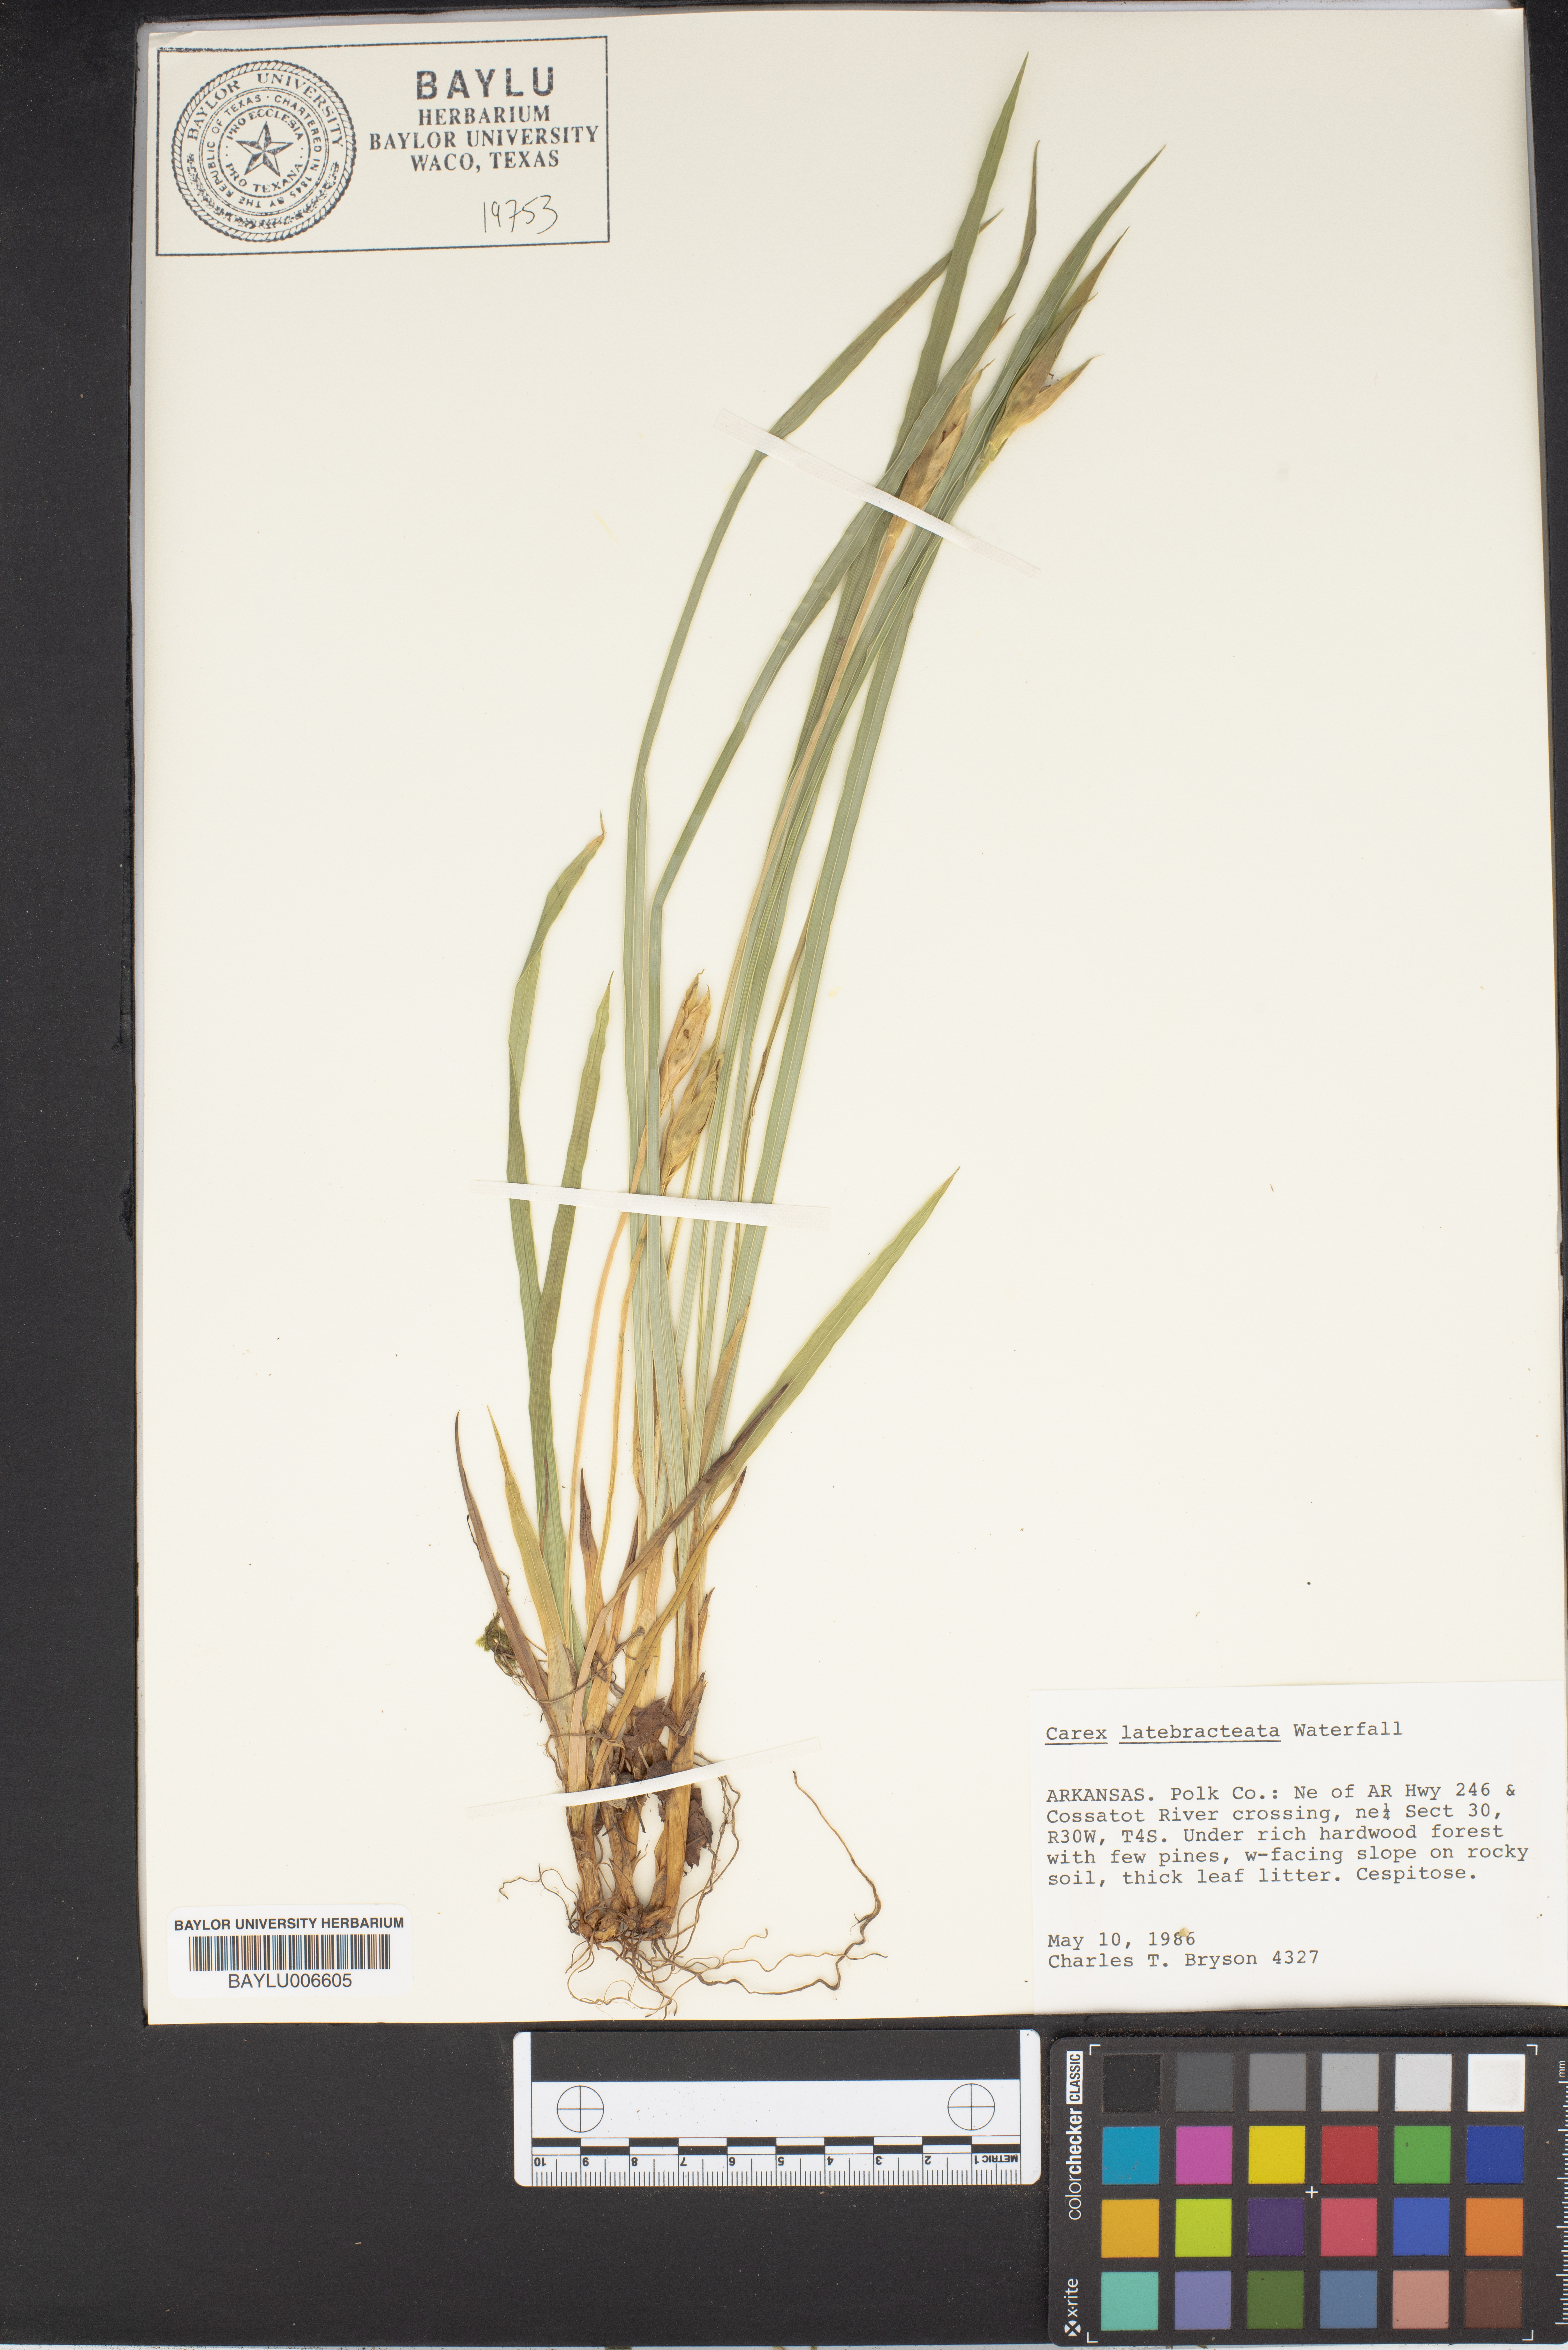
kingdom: Plantae
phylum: Tracheophyta
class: Liliopsida
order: Poales
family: Cyperaceae
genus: Carex
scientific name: Carex latebracteata
